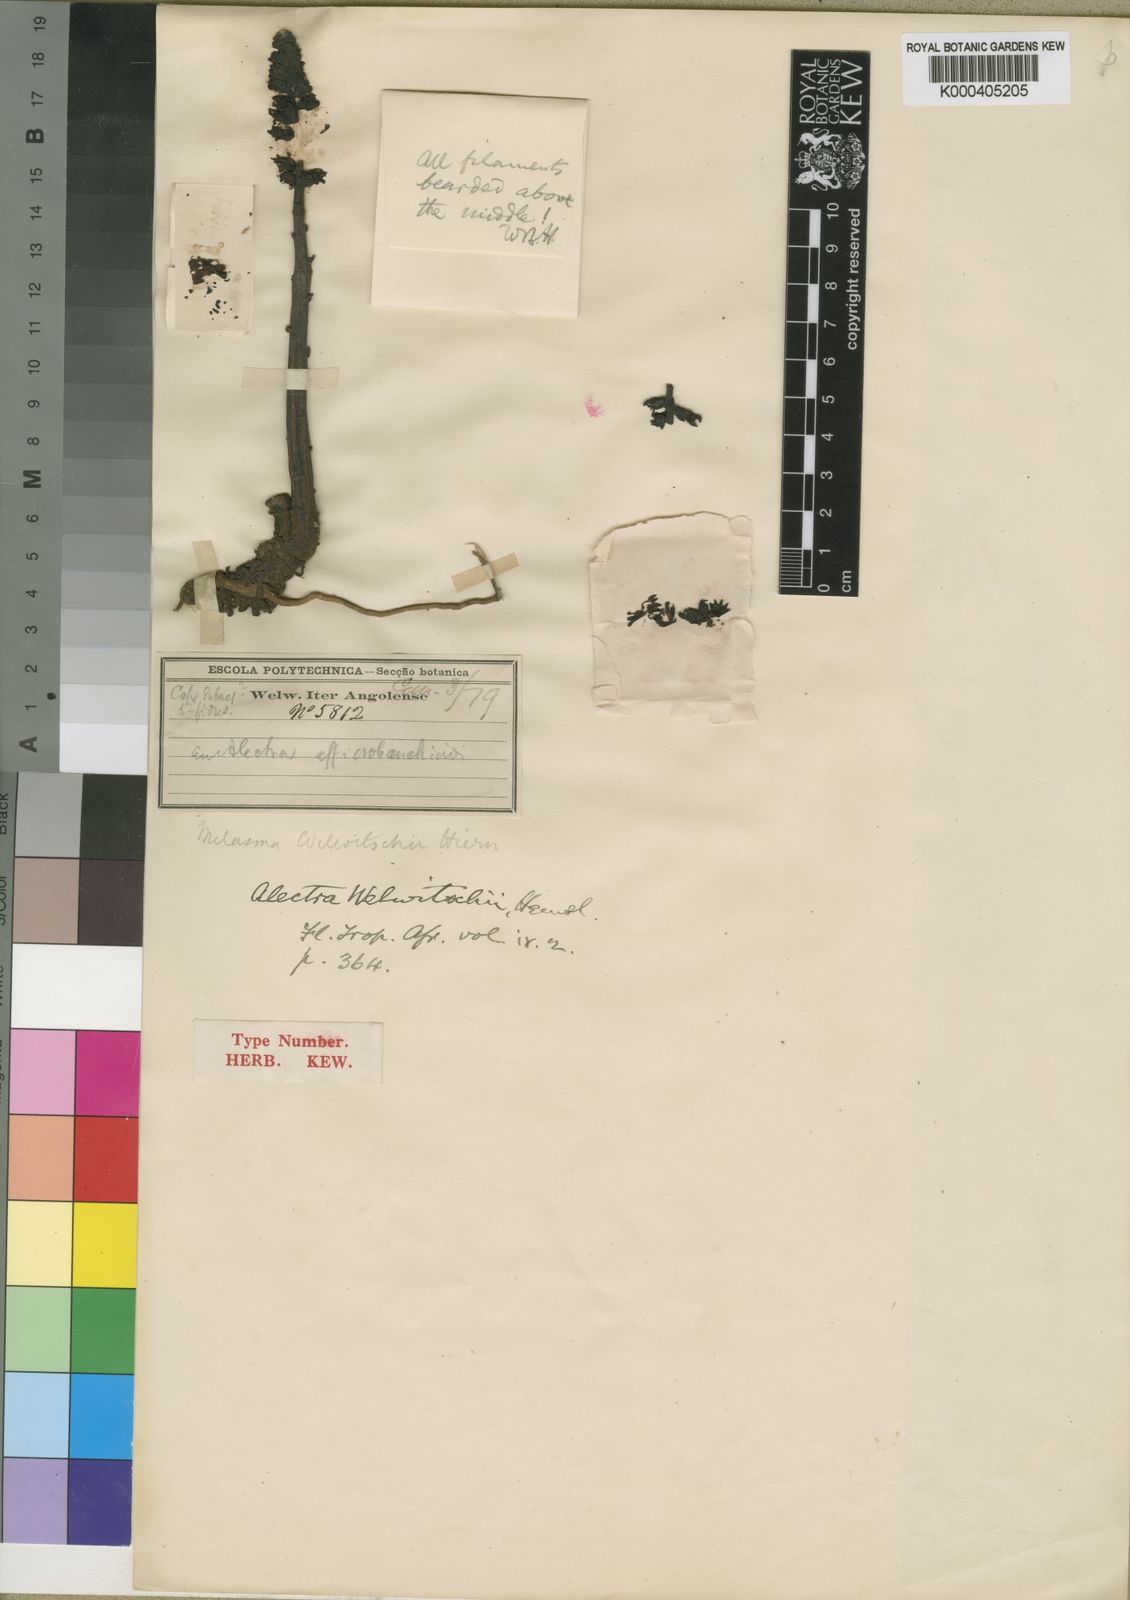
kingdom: Plantae
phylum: Tracheophyta
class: Magnoliopsida
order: Lamiales
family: Orobanchaceae
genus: Alectra
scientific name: Alectra orobanchoides
